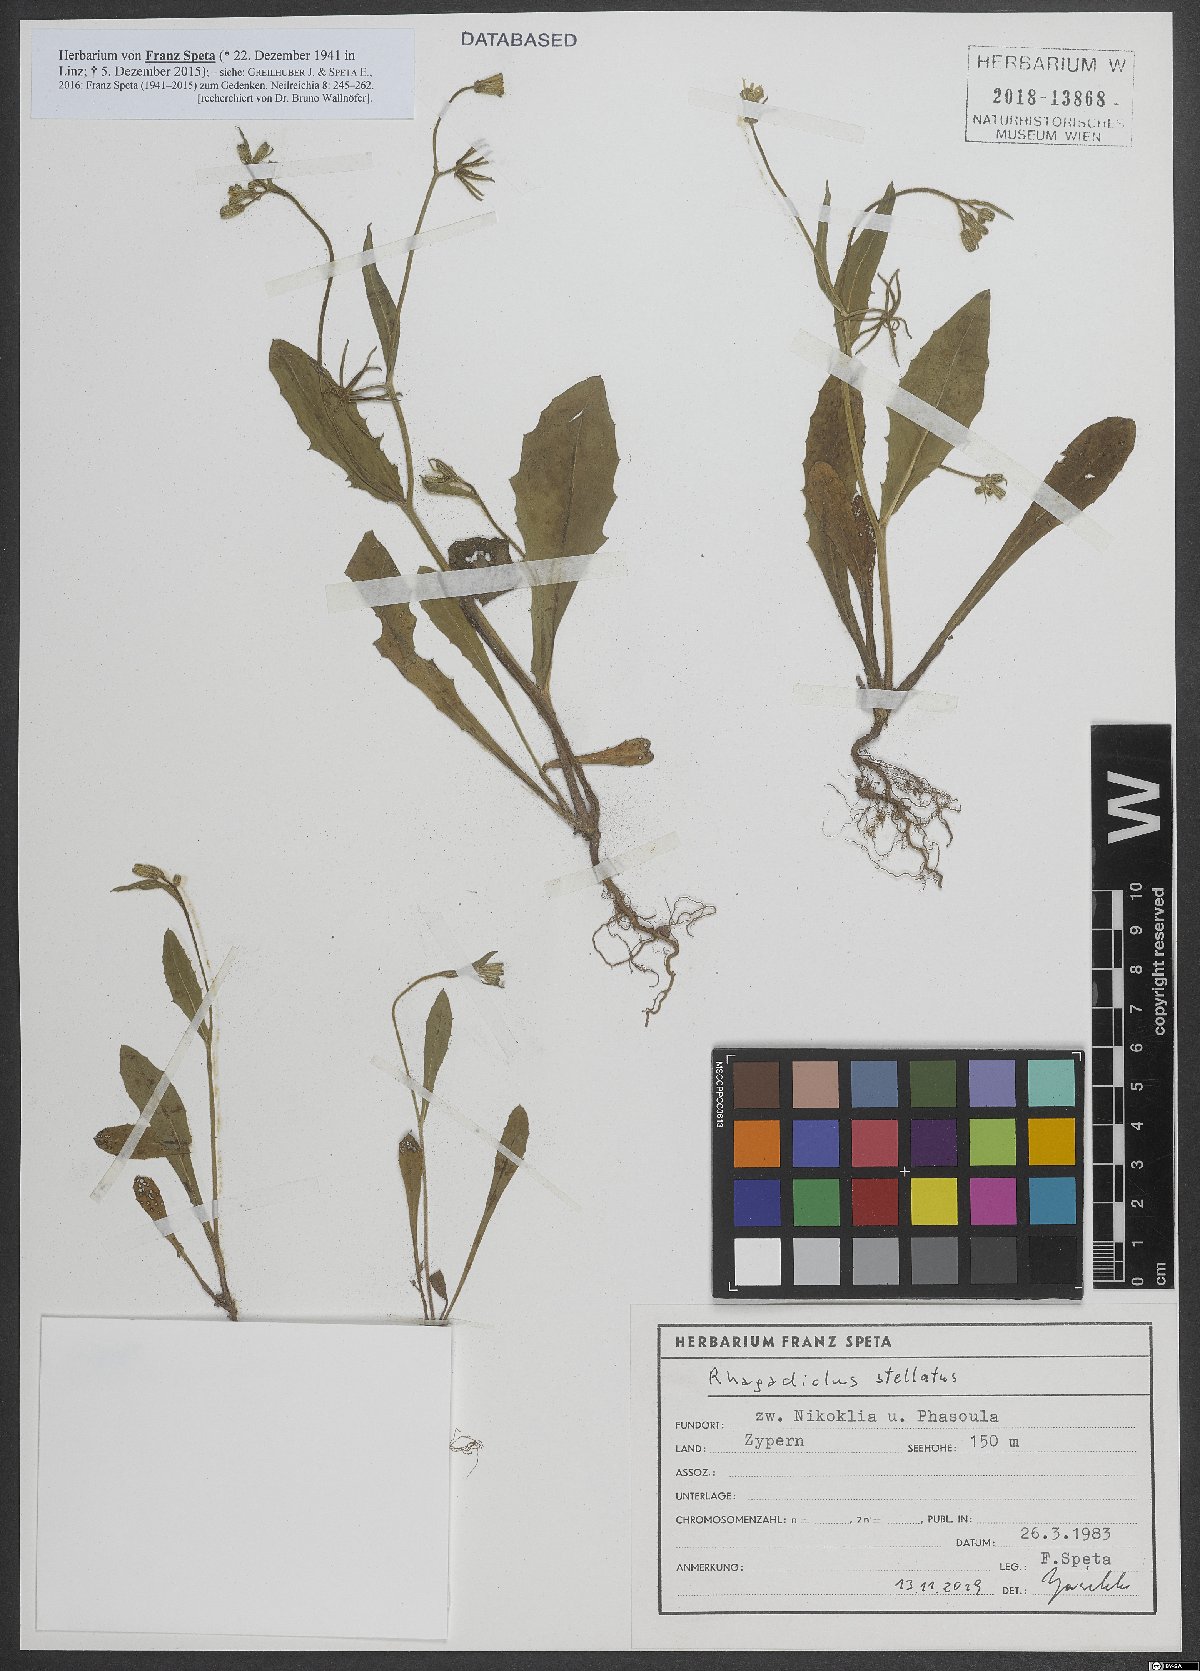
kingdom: Plantae
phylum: Tracheophyta
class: Magnoliopsida
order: Asterales
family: Asteraceae
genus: Rhagadiolus
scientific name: Rhagadiolus stellatus
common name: Star hawkbit
